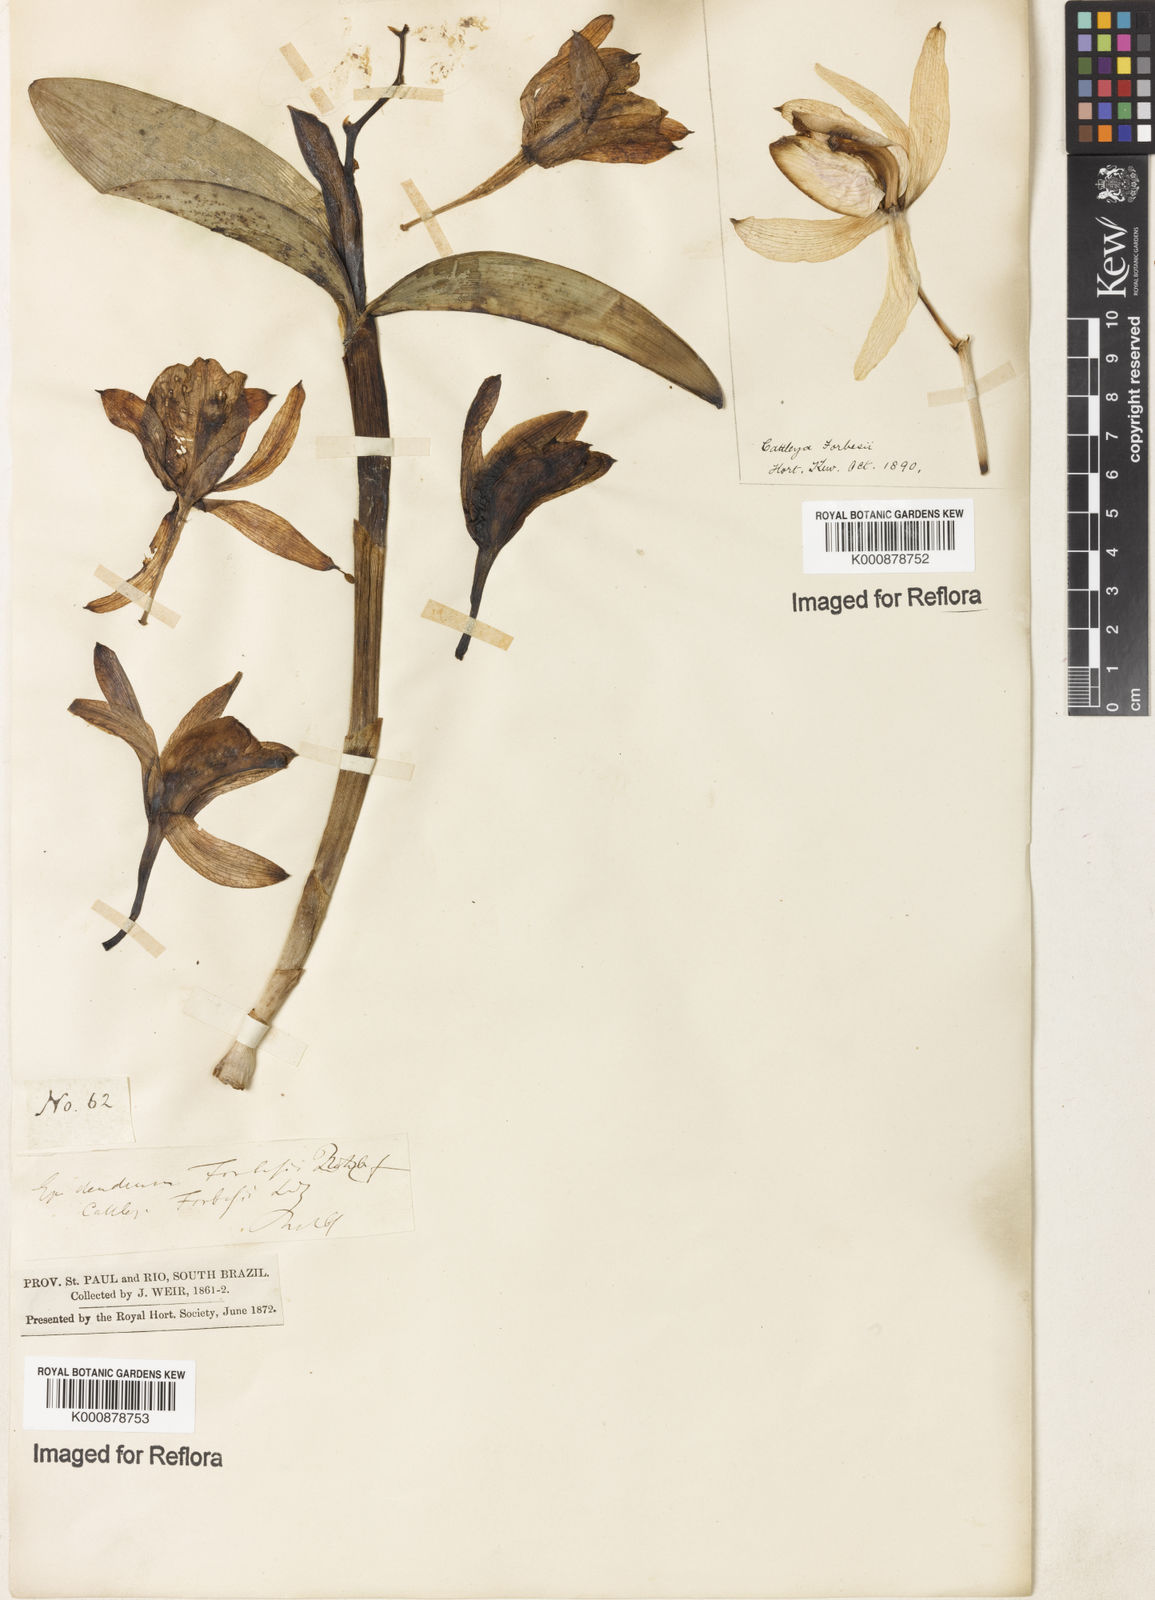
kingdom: Plantae
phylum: Tracheophyta
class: Liliopsida
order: Asparagales
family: Orchidaceae
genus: Cattleya
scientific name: Cattleya forbesii
